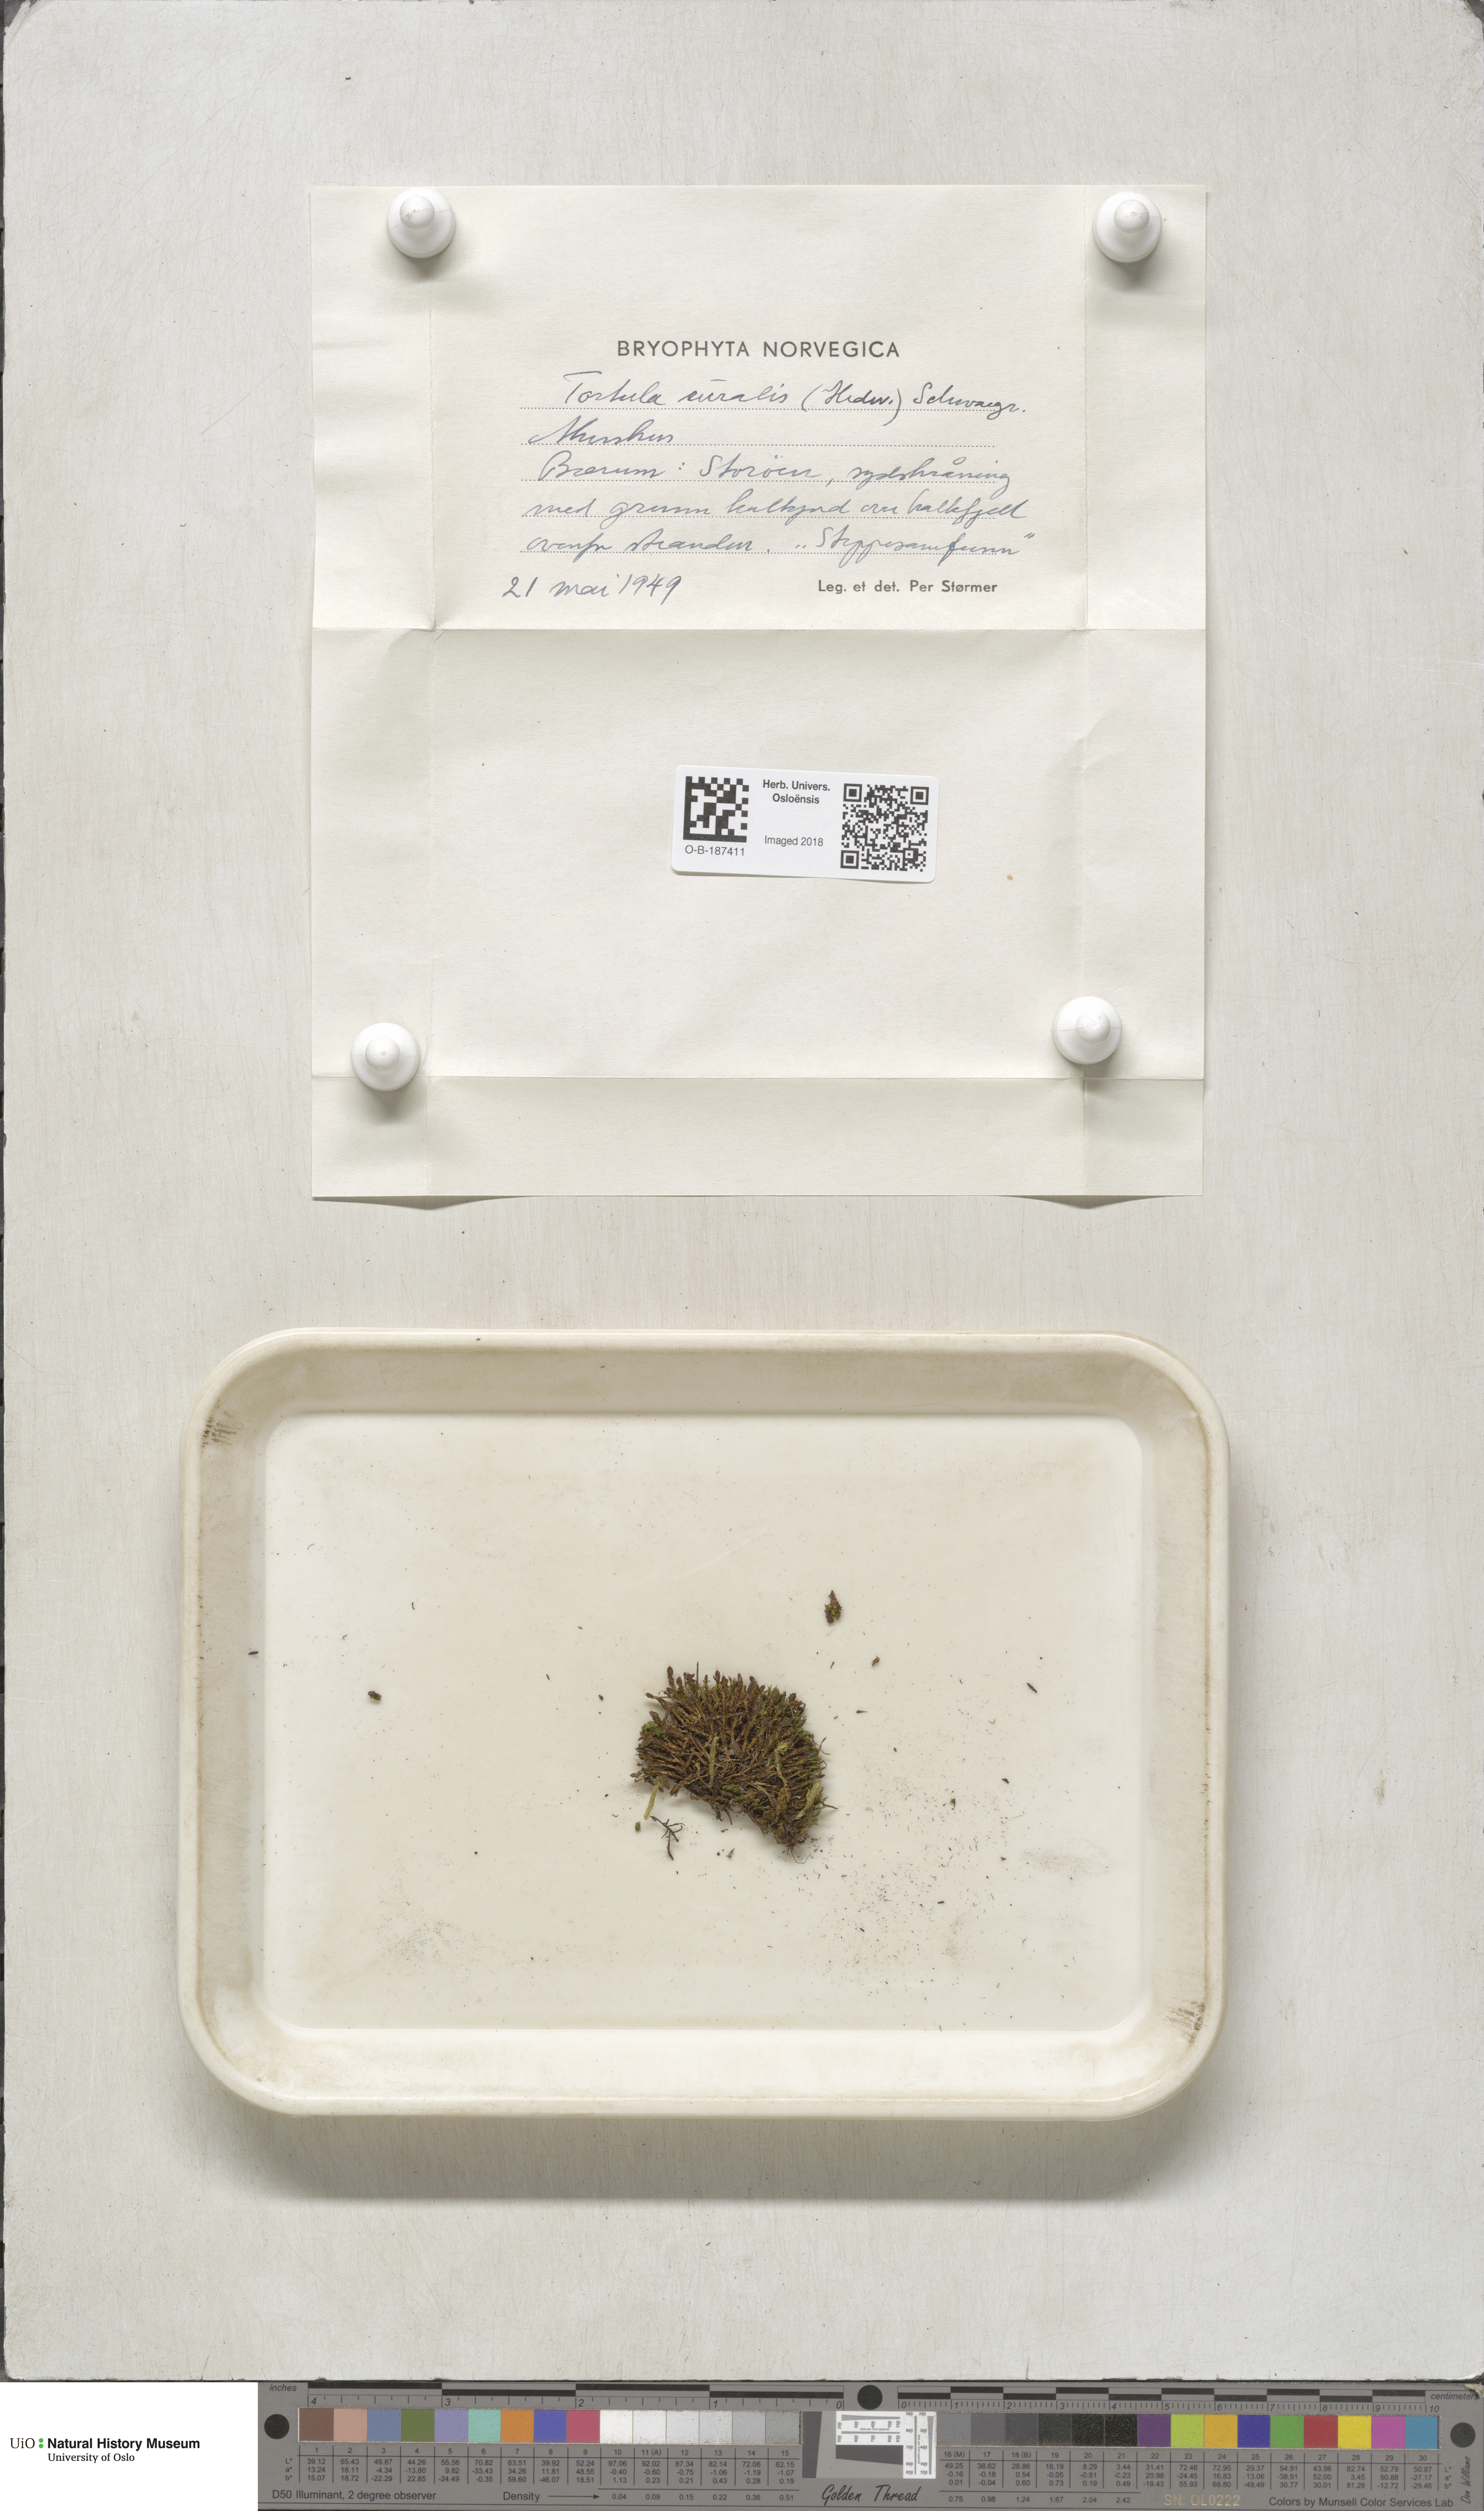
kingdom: Plantae
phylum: Bryophyta
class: Bryopsida
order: Pottiales
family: Pottiaceae
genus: Syntrichia
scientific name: Syntrichia ruralis
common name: Sidewalk screw moss
